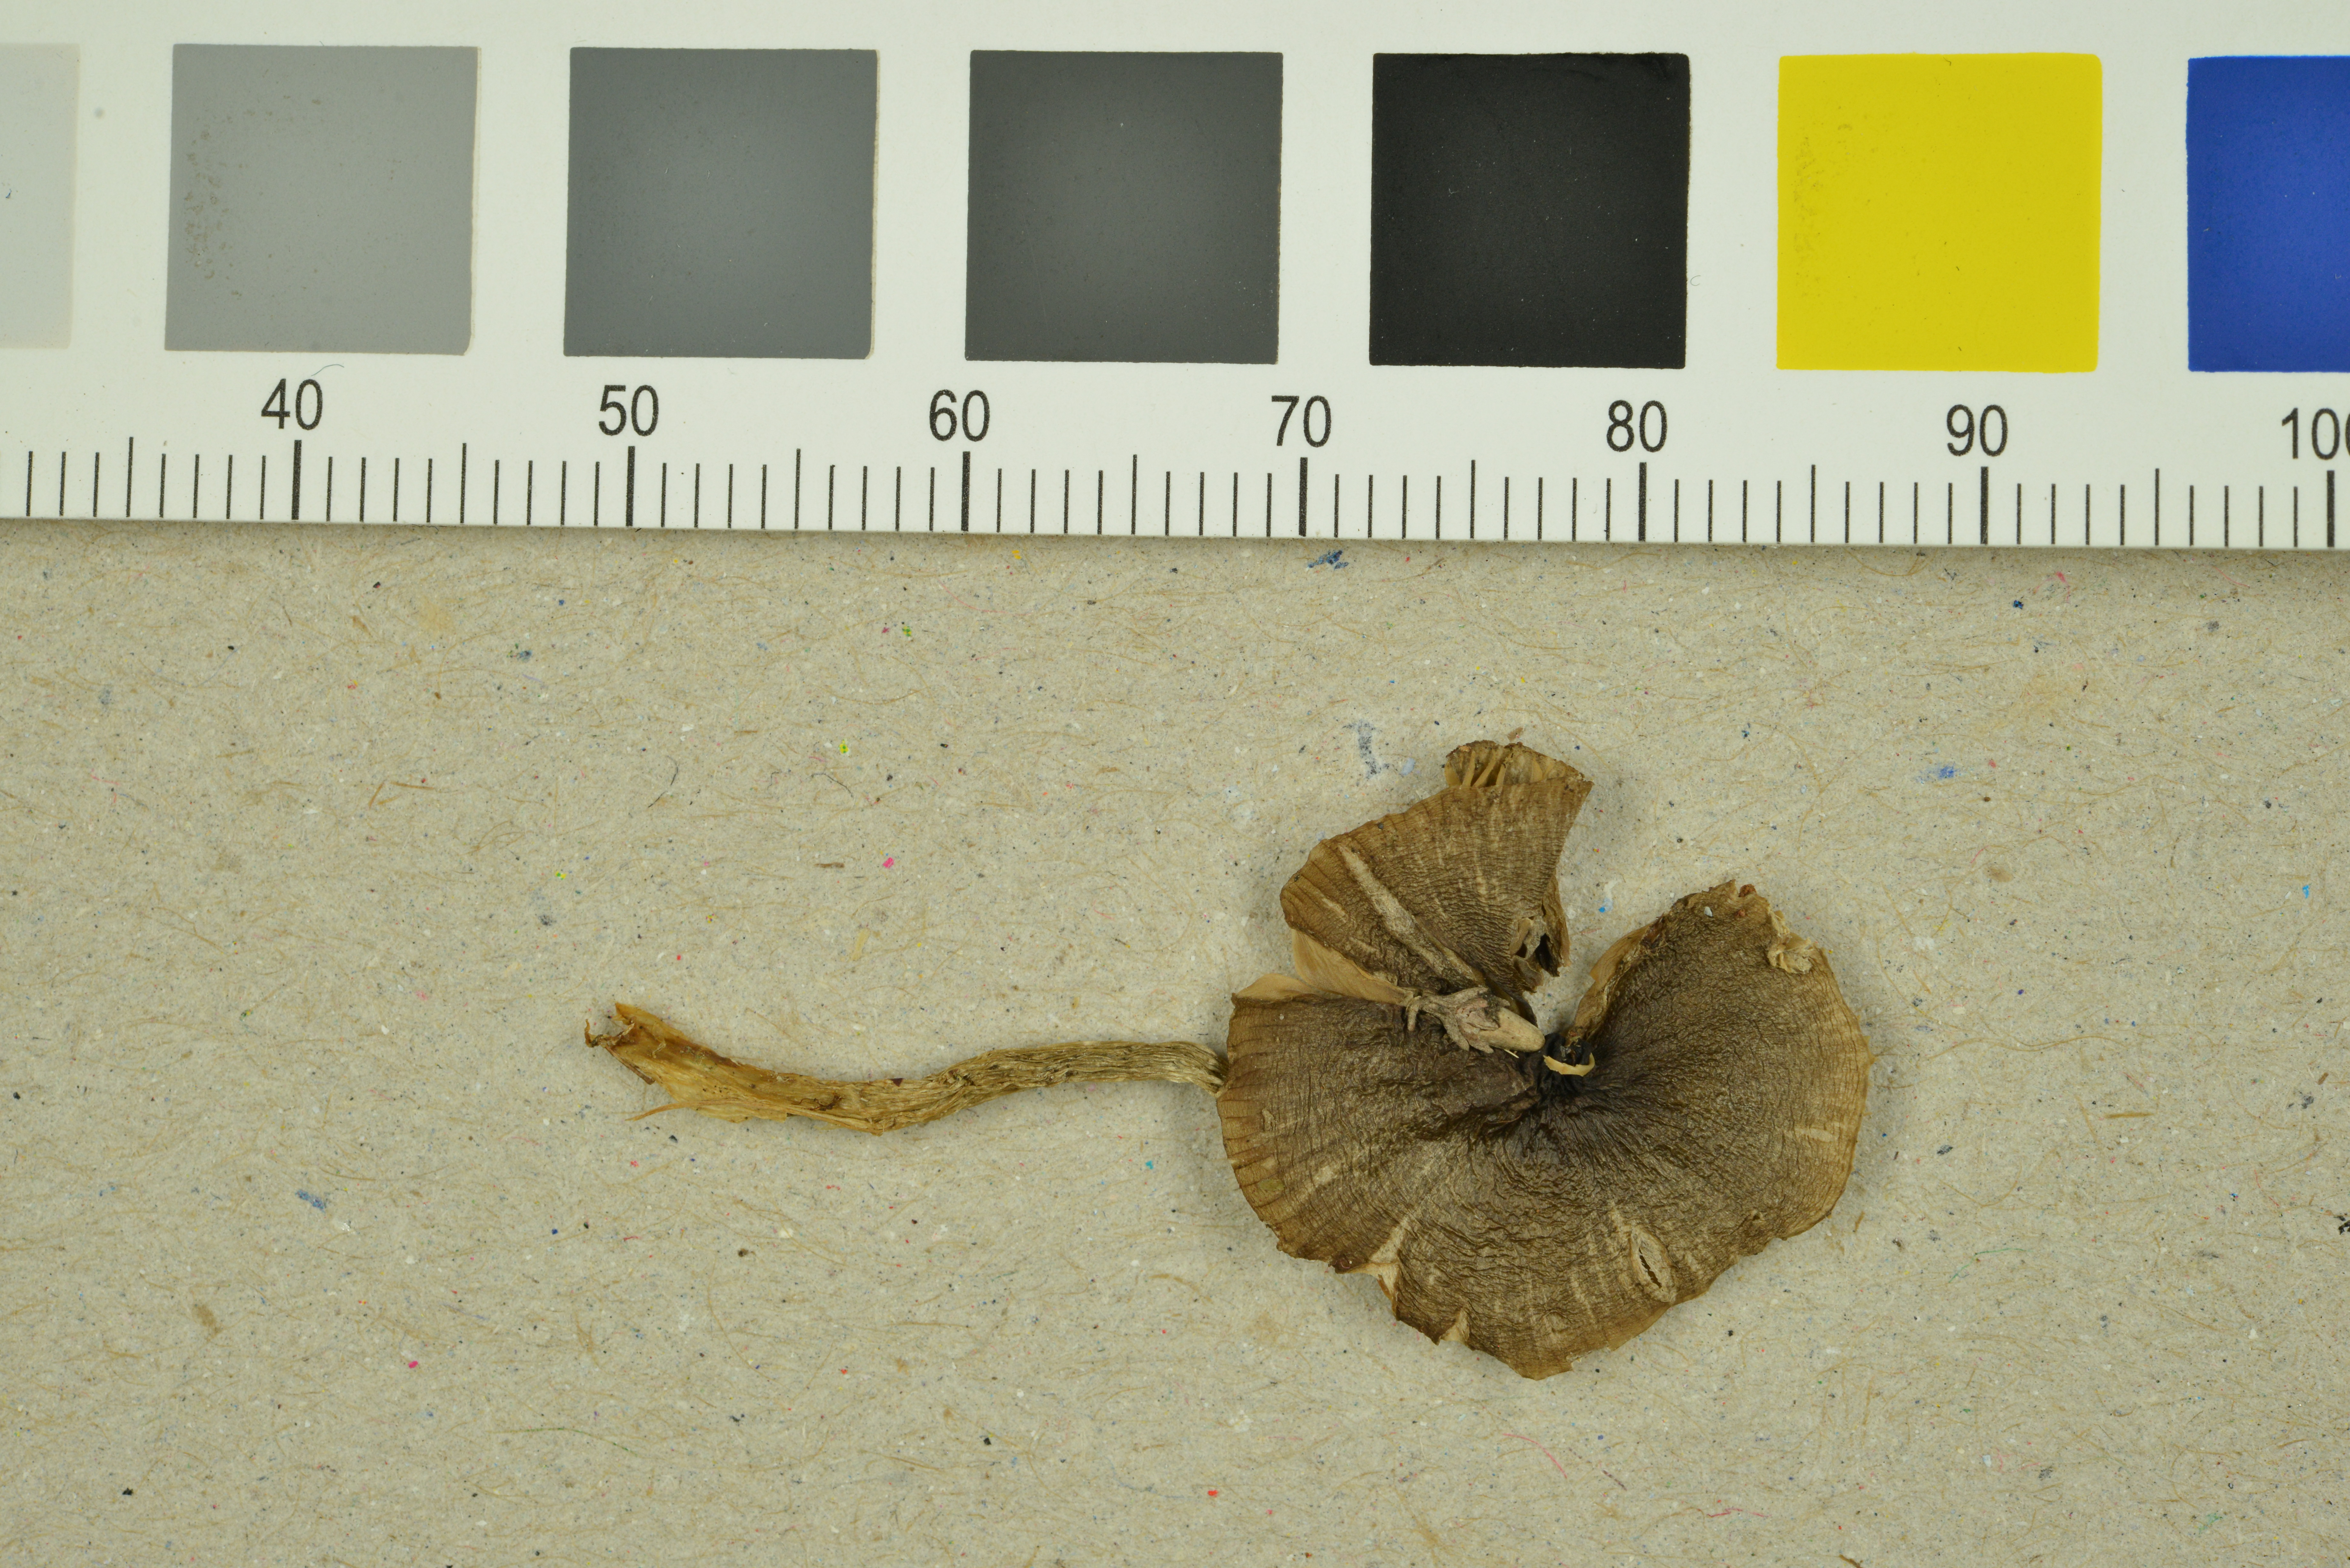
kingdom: Fungi
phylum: Basidiomycota
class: Agaricomycetes
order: Agaricales
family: Entolomataceae
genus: Entocybe
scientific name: Entocybe turbida
